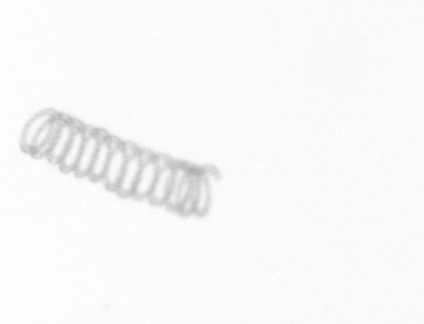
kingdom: Chromista
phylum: Ochrophyta
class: Bacillariophyceae
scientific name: Bacillariophyceae
